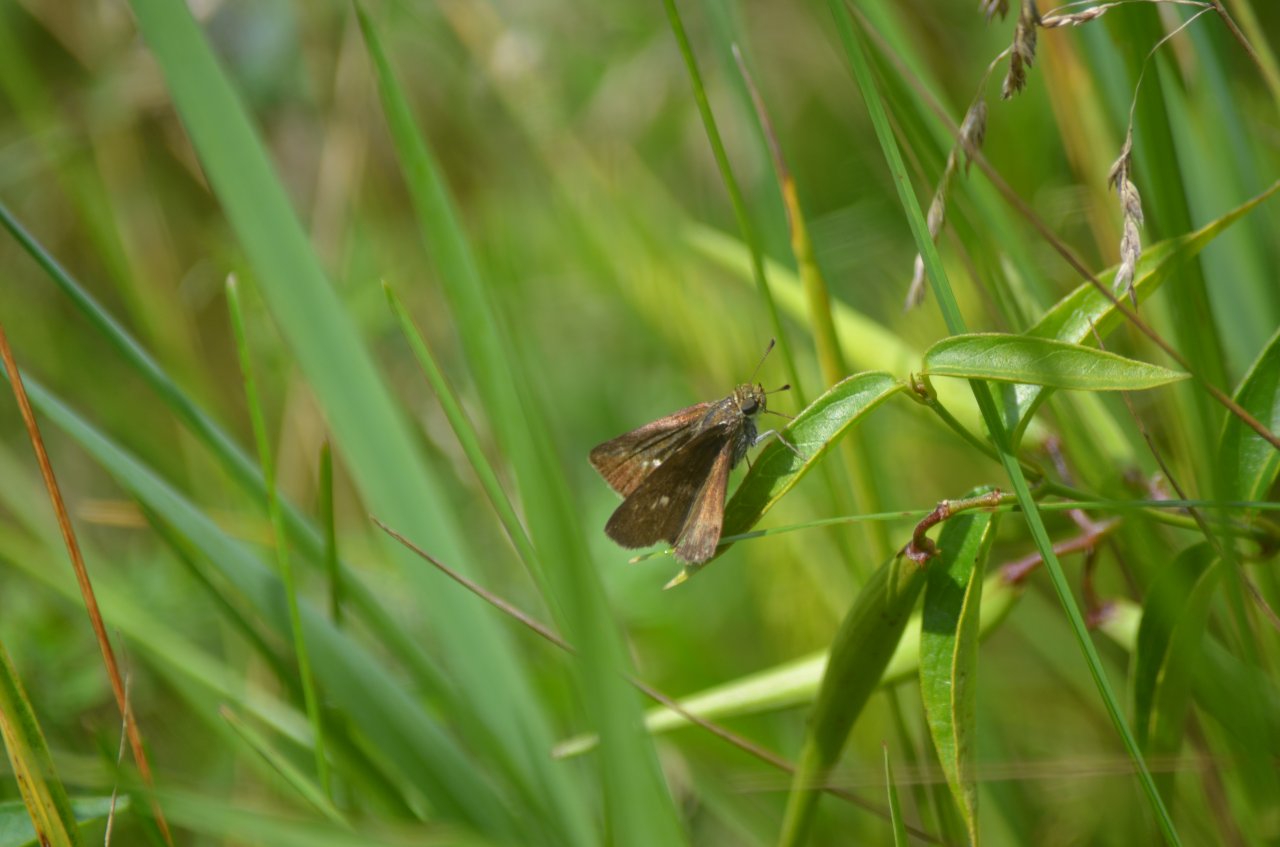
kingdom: Animalia
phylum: Arthropoda
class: Insecta
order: Lepidoptera
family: Hesperiidae
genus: Euphyes
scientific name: Euphyes vestris
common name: Dun Skipper
